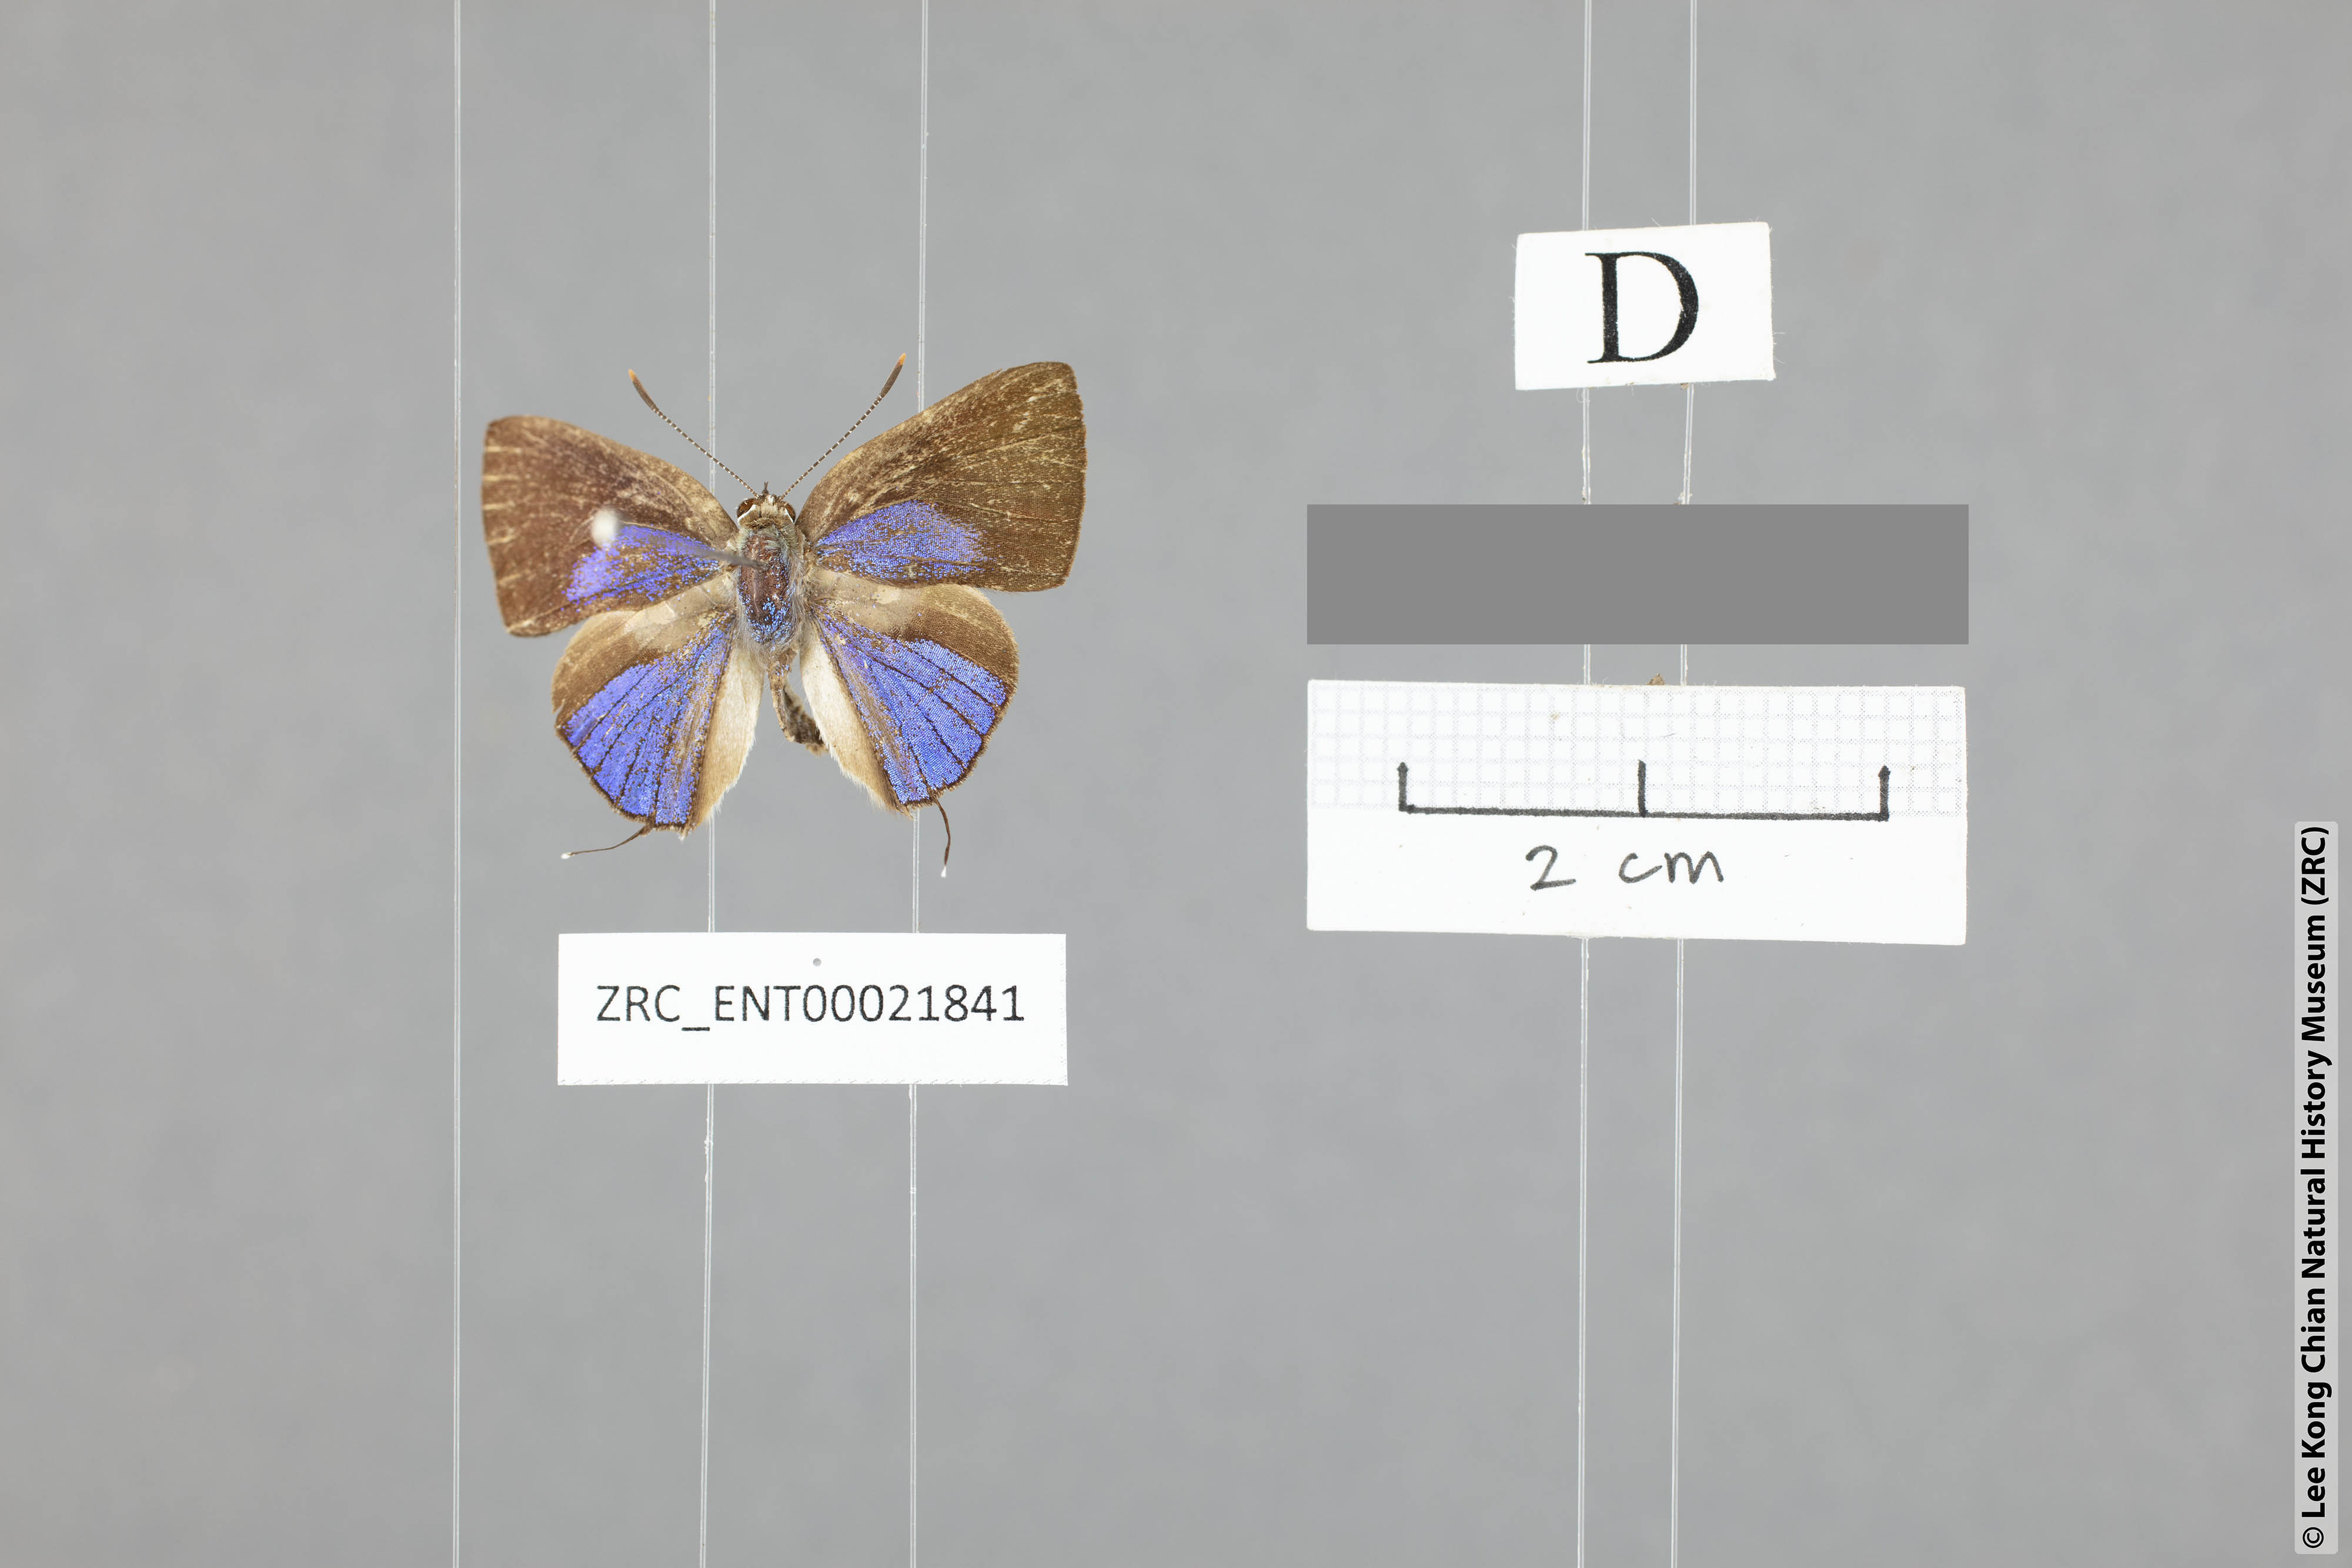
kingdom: Animalia
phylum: Arthropoda
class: Insecta
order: Lepidoptera
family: Lycaenidae
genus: Deudorix
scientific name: Deudorix kessuma
